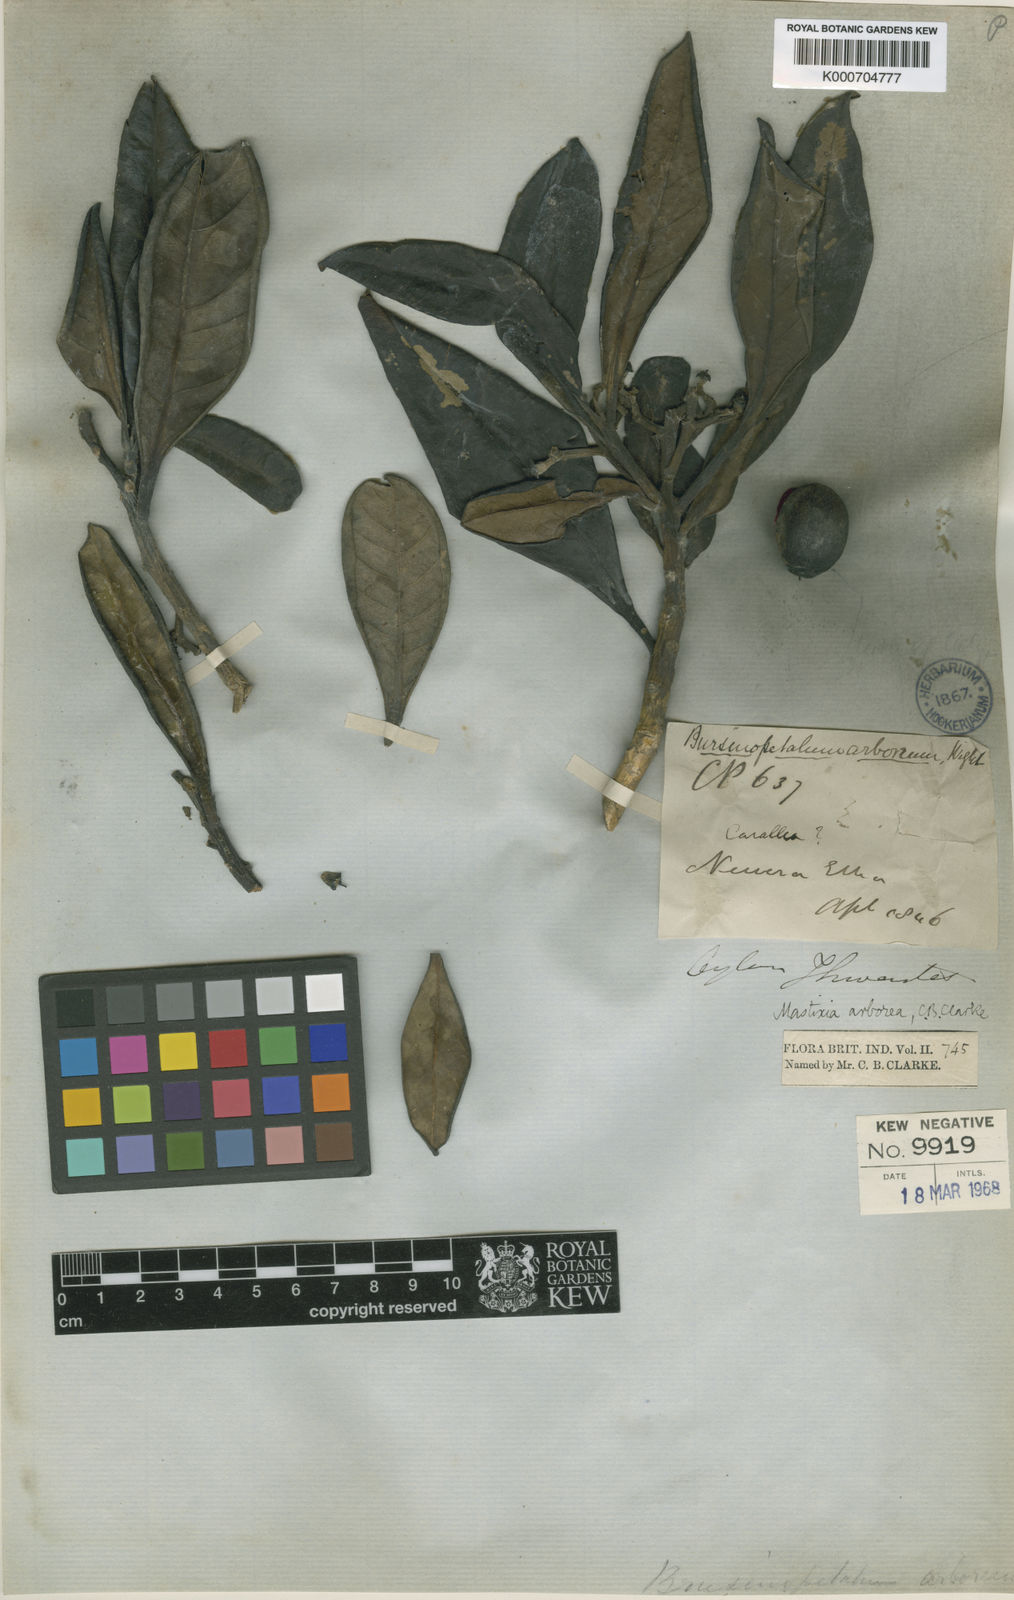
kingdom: Plantae
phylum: Tracheophyta
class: Magnoliopsida
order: Cornales
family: Nyssaceae
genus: Mastixia
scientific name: Mastixia arborea
